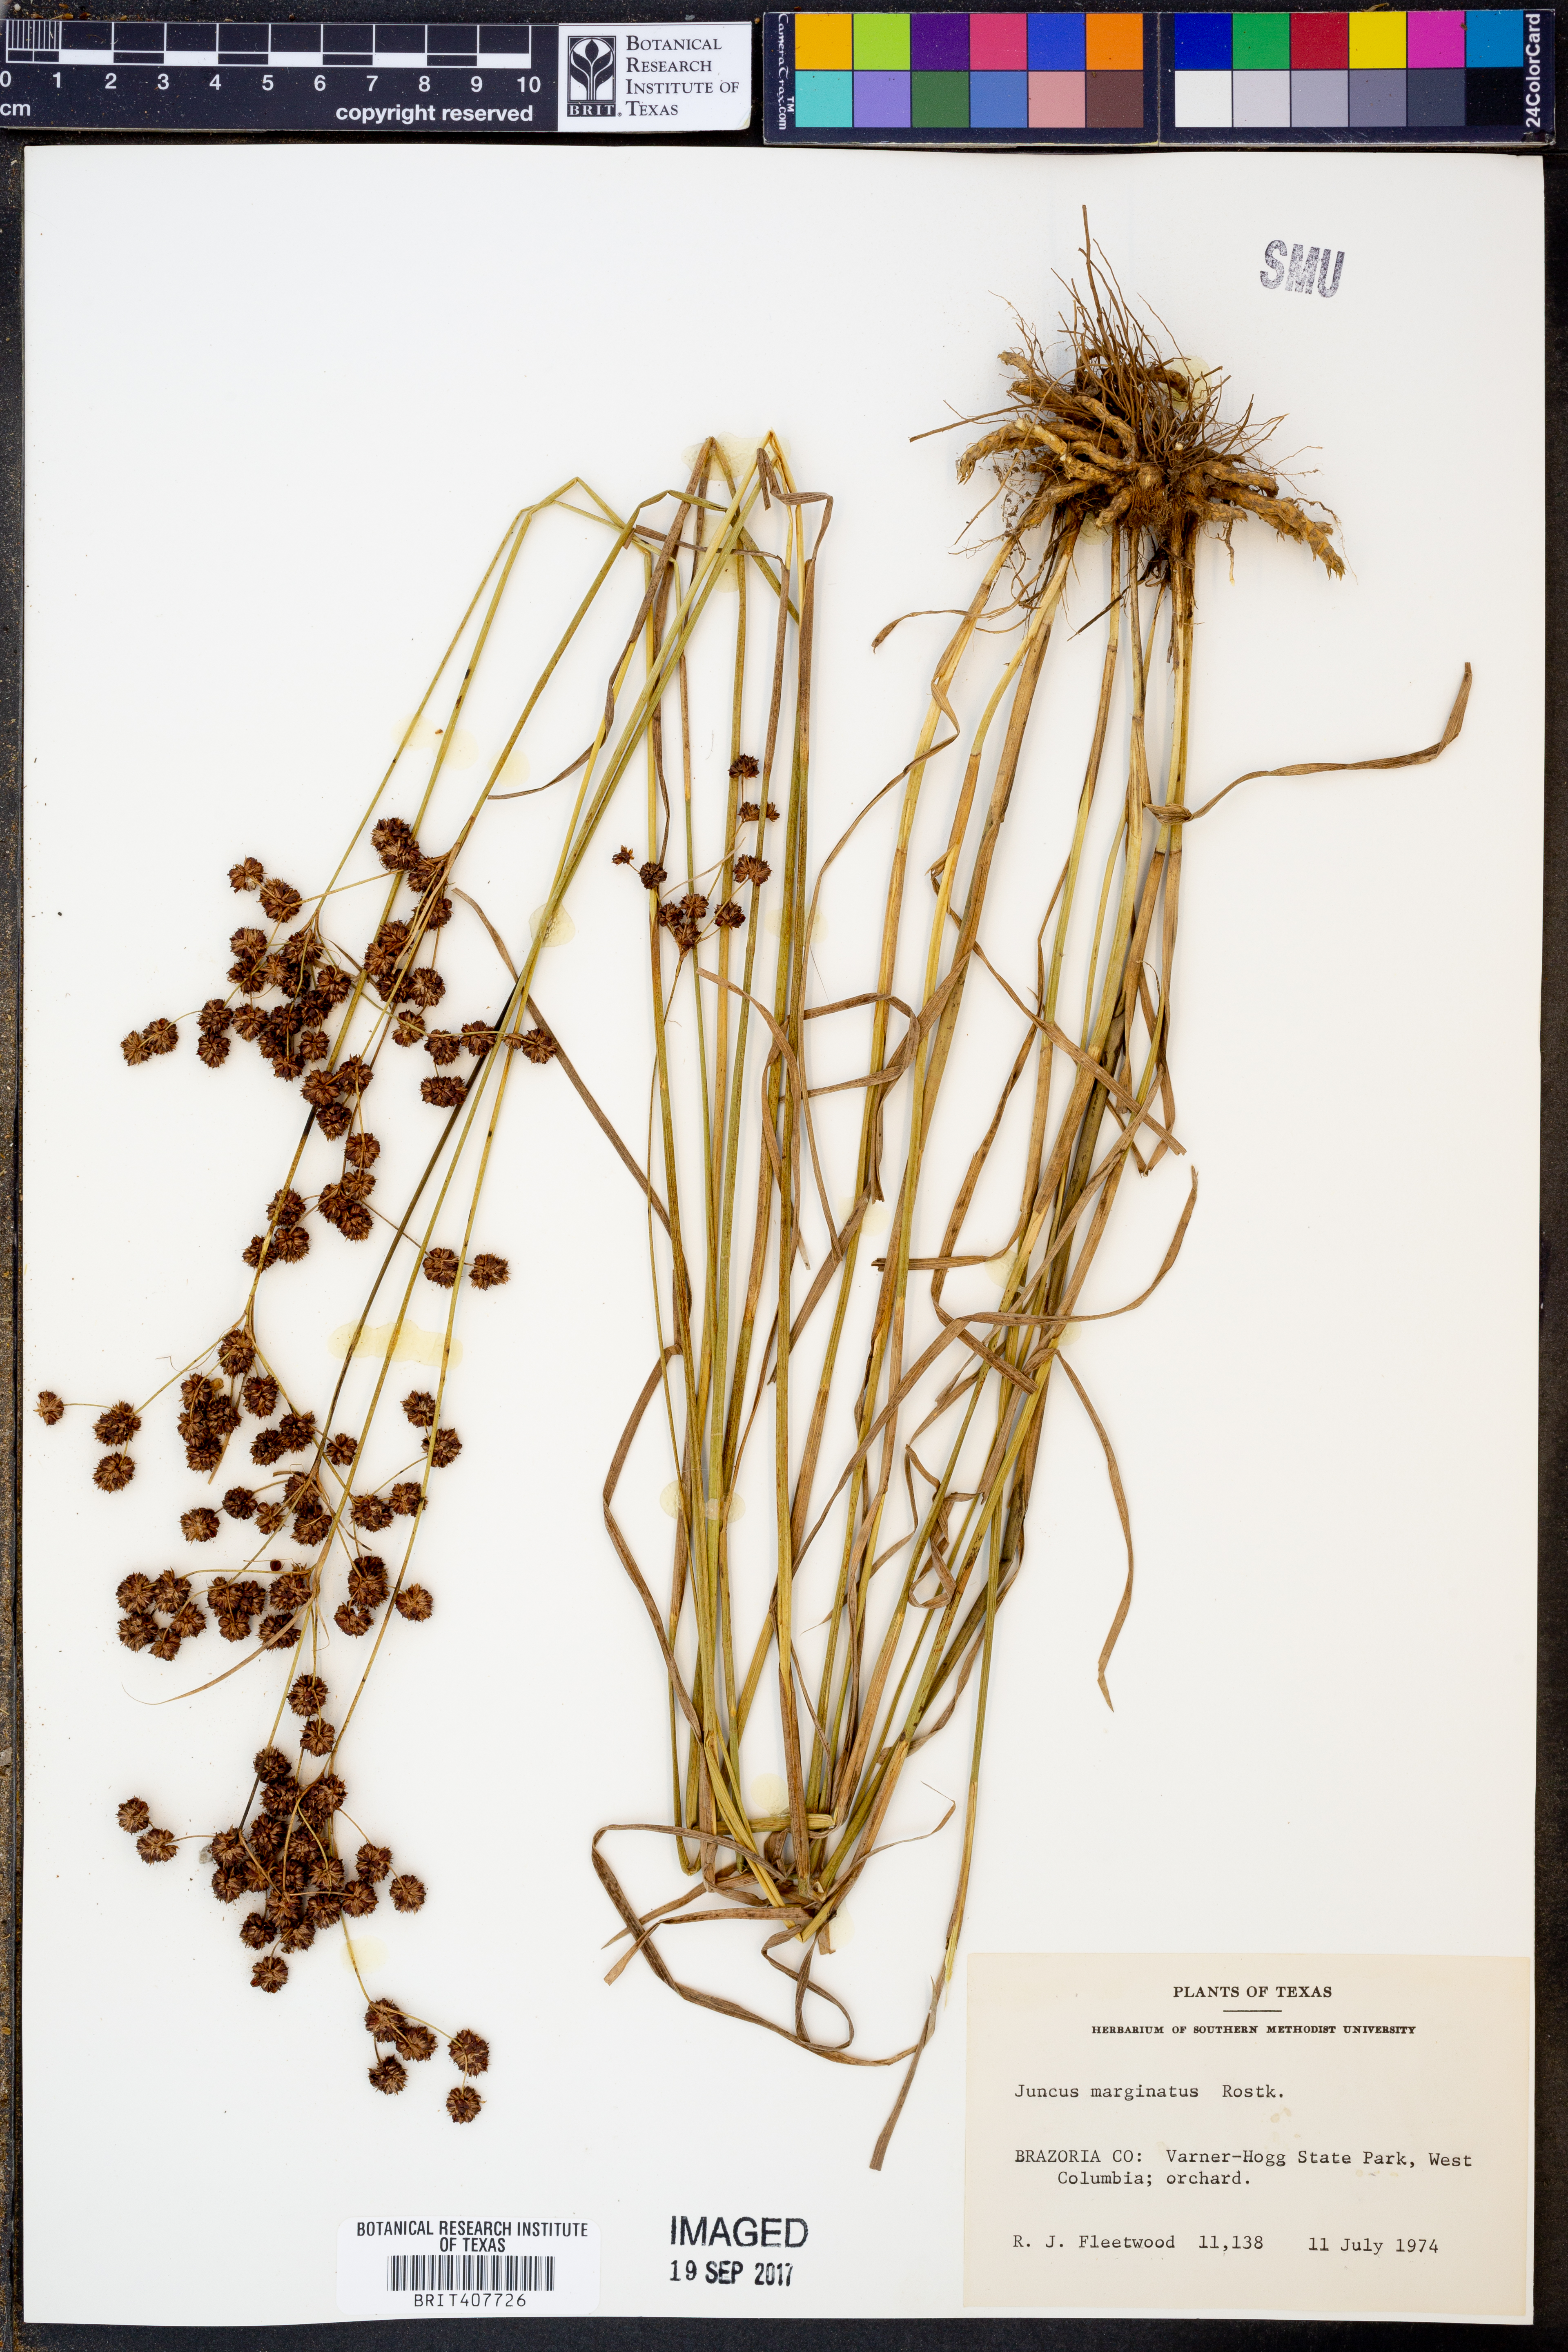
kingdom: Plantae
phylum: Tracheophyta
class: Liliopsida
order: Poales
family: Juncaceae
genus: Juncus
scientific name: Juncus marginatus
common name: Grass-leaf rush
